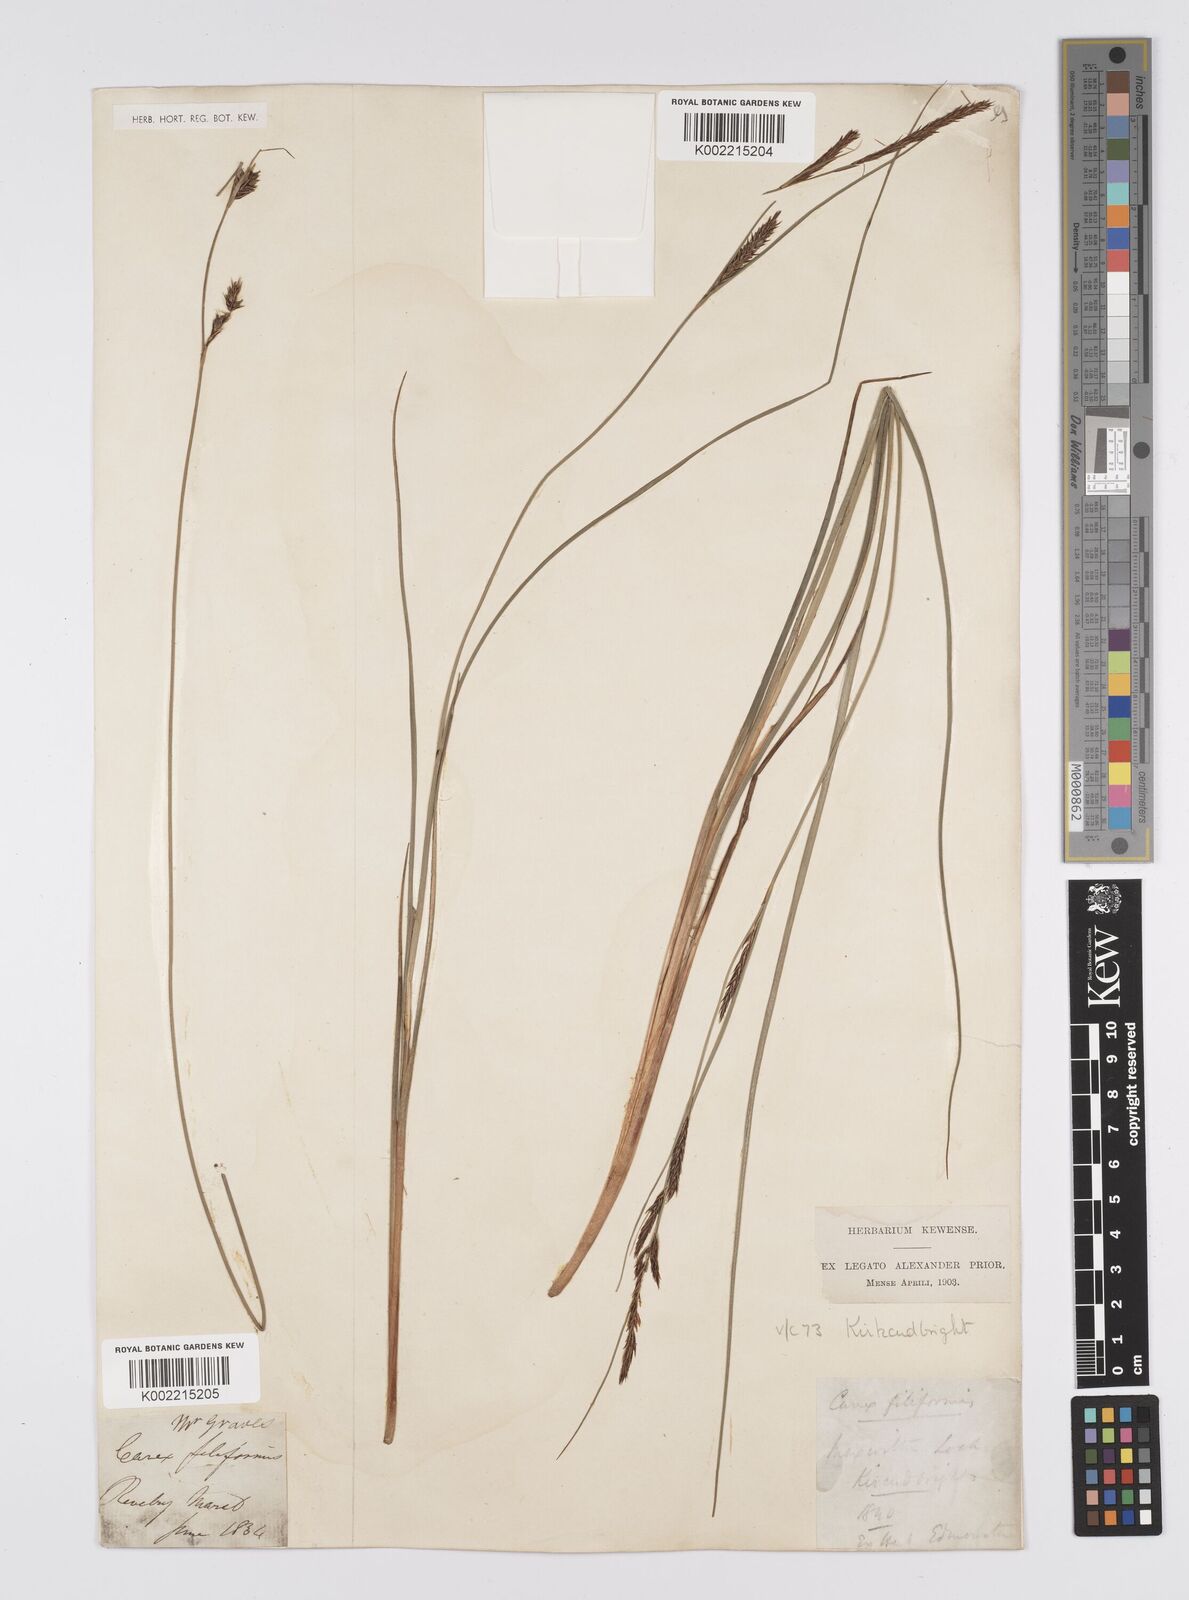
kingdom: Plantae
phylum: Tracheophyta
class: Liliopsida
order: Poales
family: Cyperaceae
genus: Carex
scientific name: Carex lasiocarpa
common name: Slender sedge
